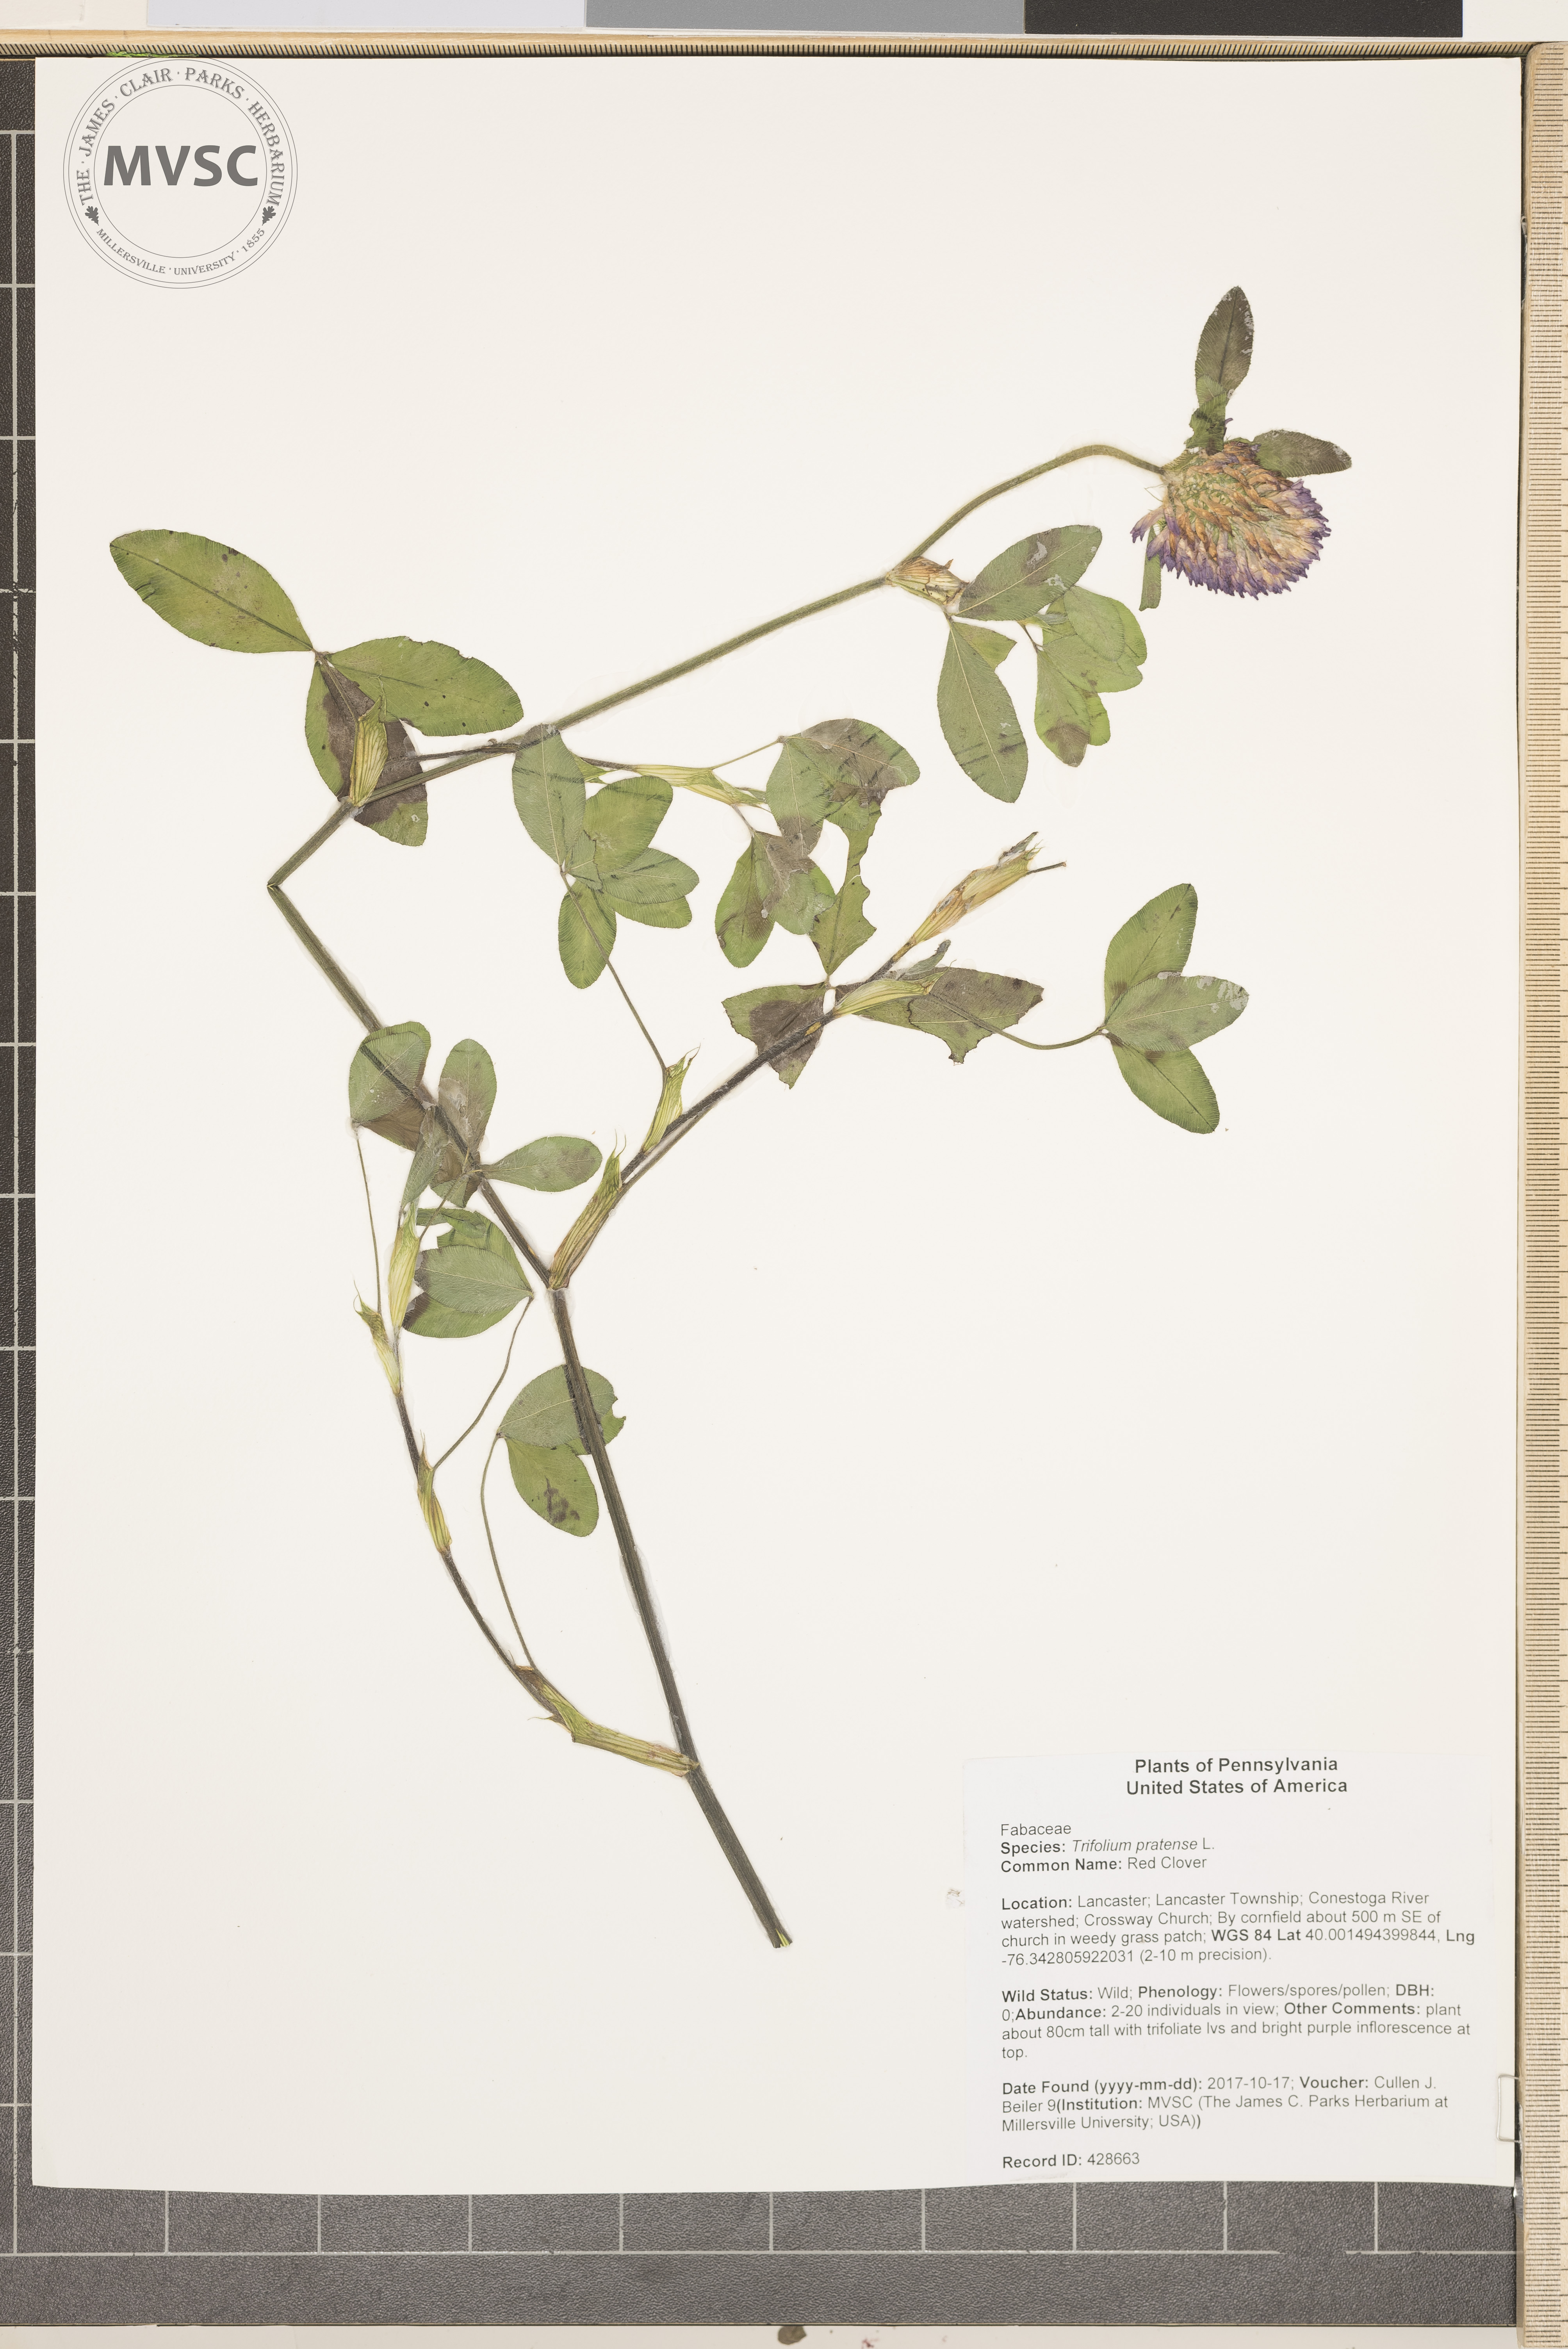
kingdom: Plantae
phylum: Tracheophyta
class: Magnoliopsida
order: Fabales
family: Fabaceae
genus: Trifolium
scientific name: Trifolium pratense
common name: Red Clover
